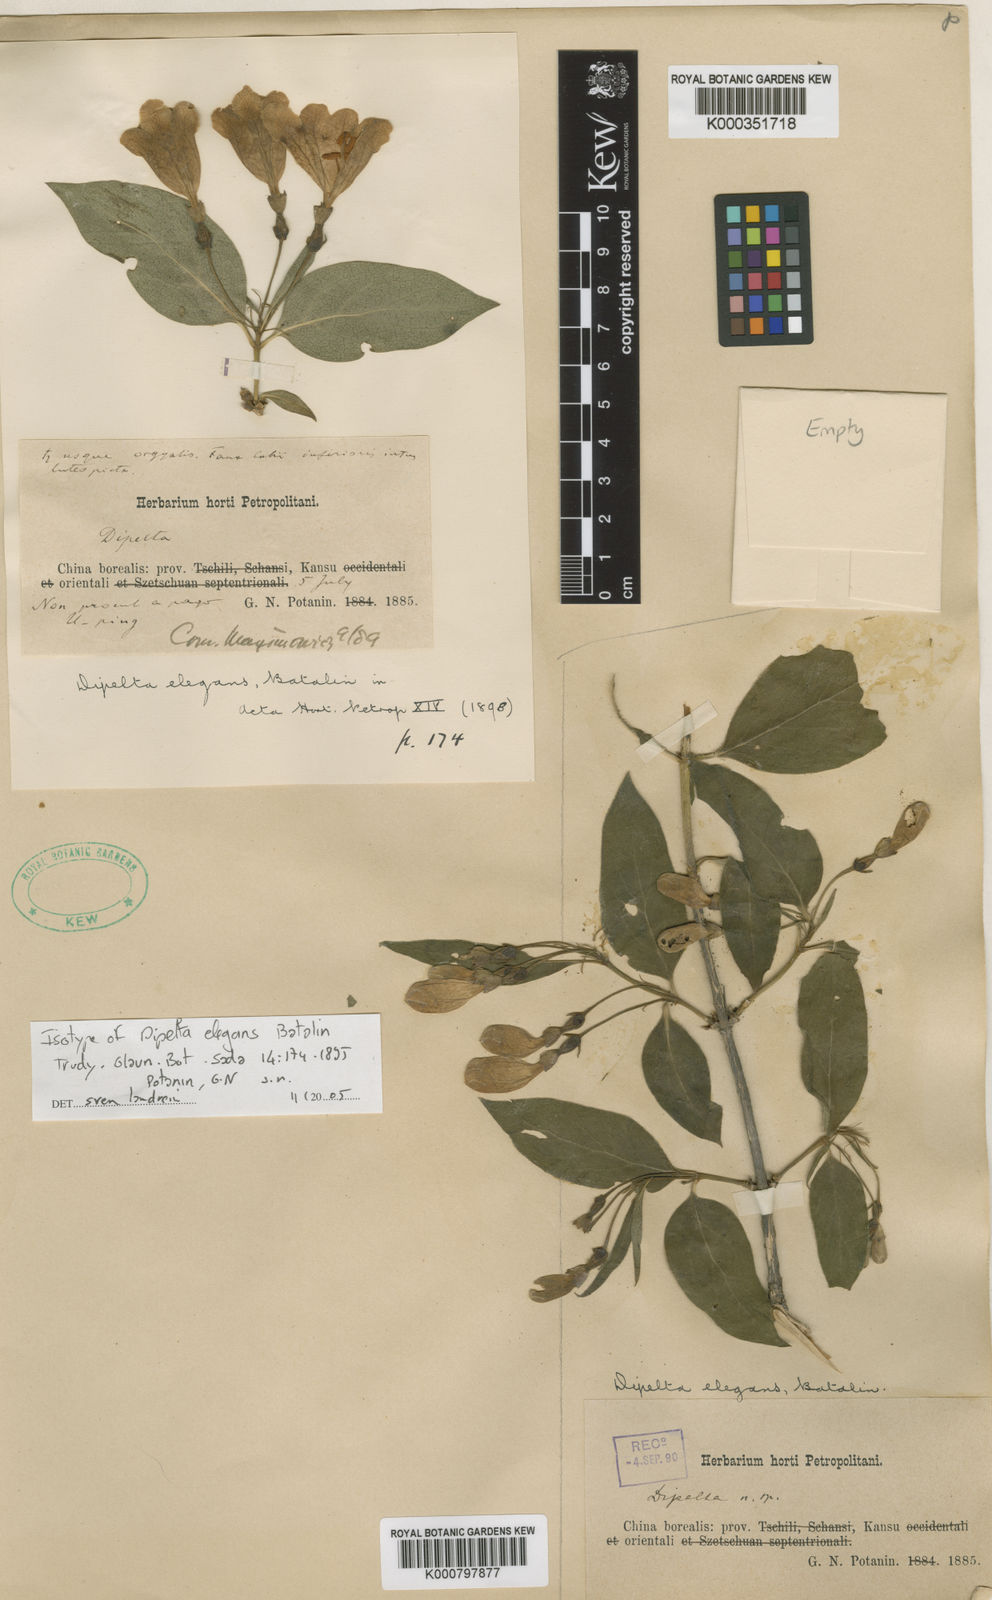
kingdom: Plantae
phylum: Tracheophyta
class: Magnoliopsida
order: Dipsacales
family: Caprifoliaceae
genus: Dipelta
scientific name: Dipelta elegans
